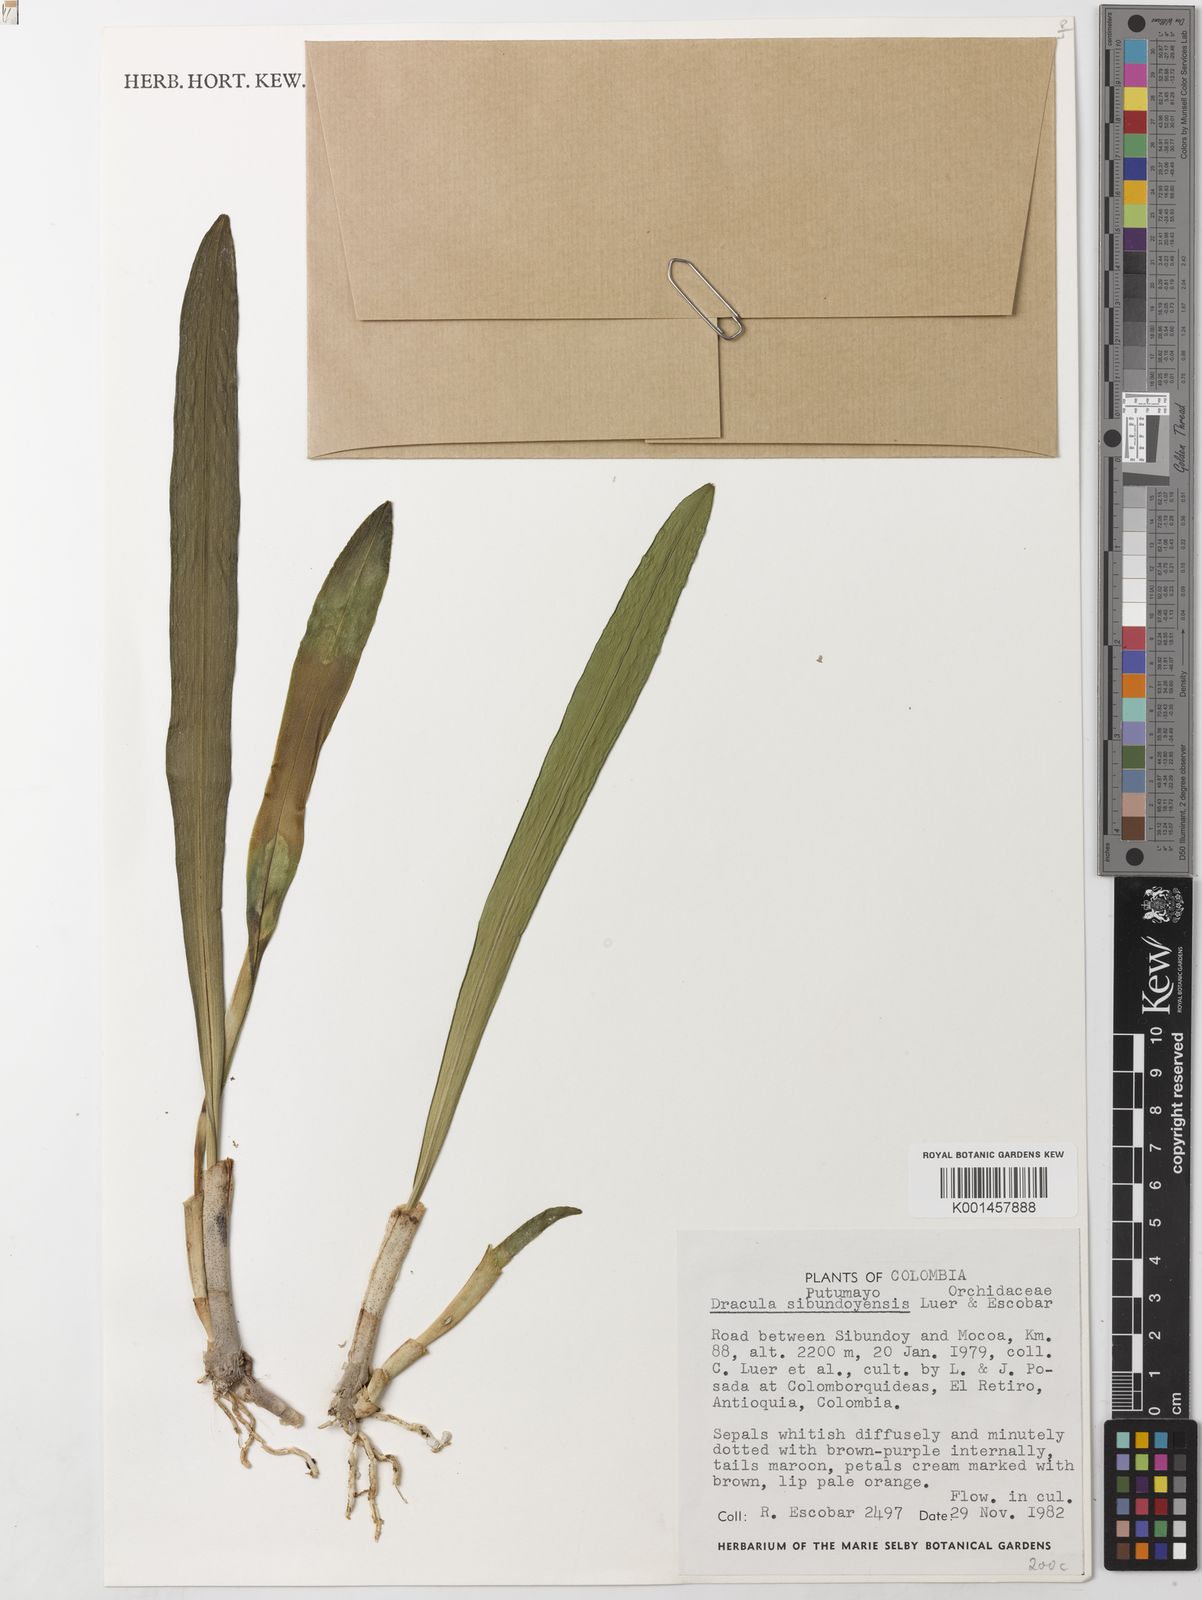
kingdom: Plantae
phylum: Tracheophyta
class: Liliopsida
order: Asparagales
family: Orchidaceae
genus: Dracula
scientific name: Dracula sibundoyensis
